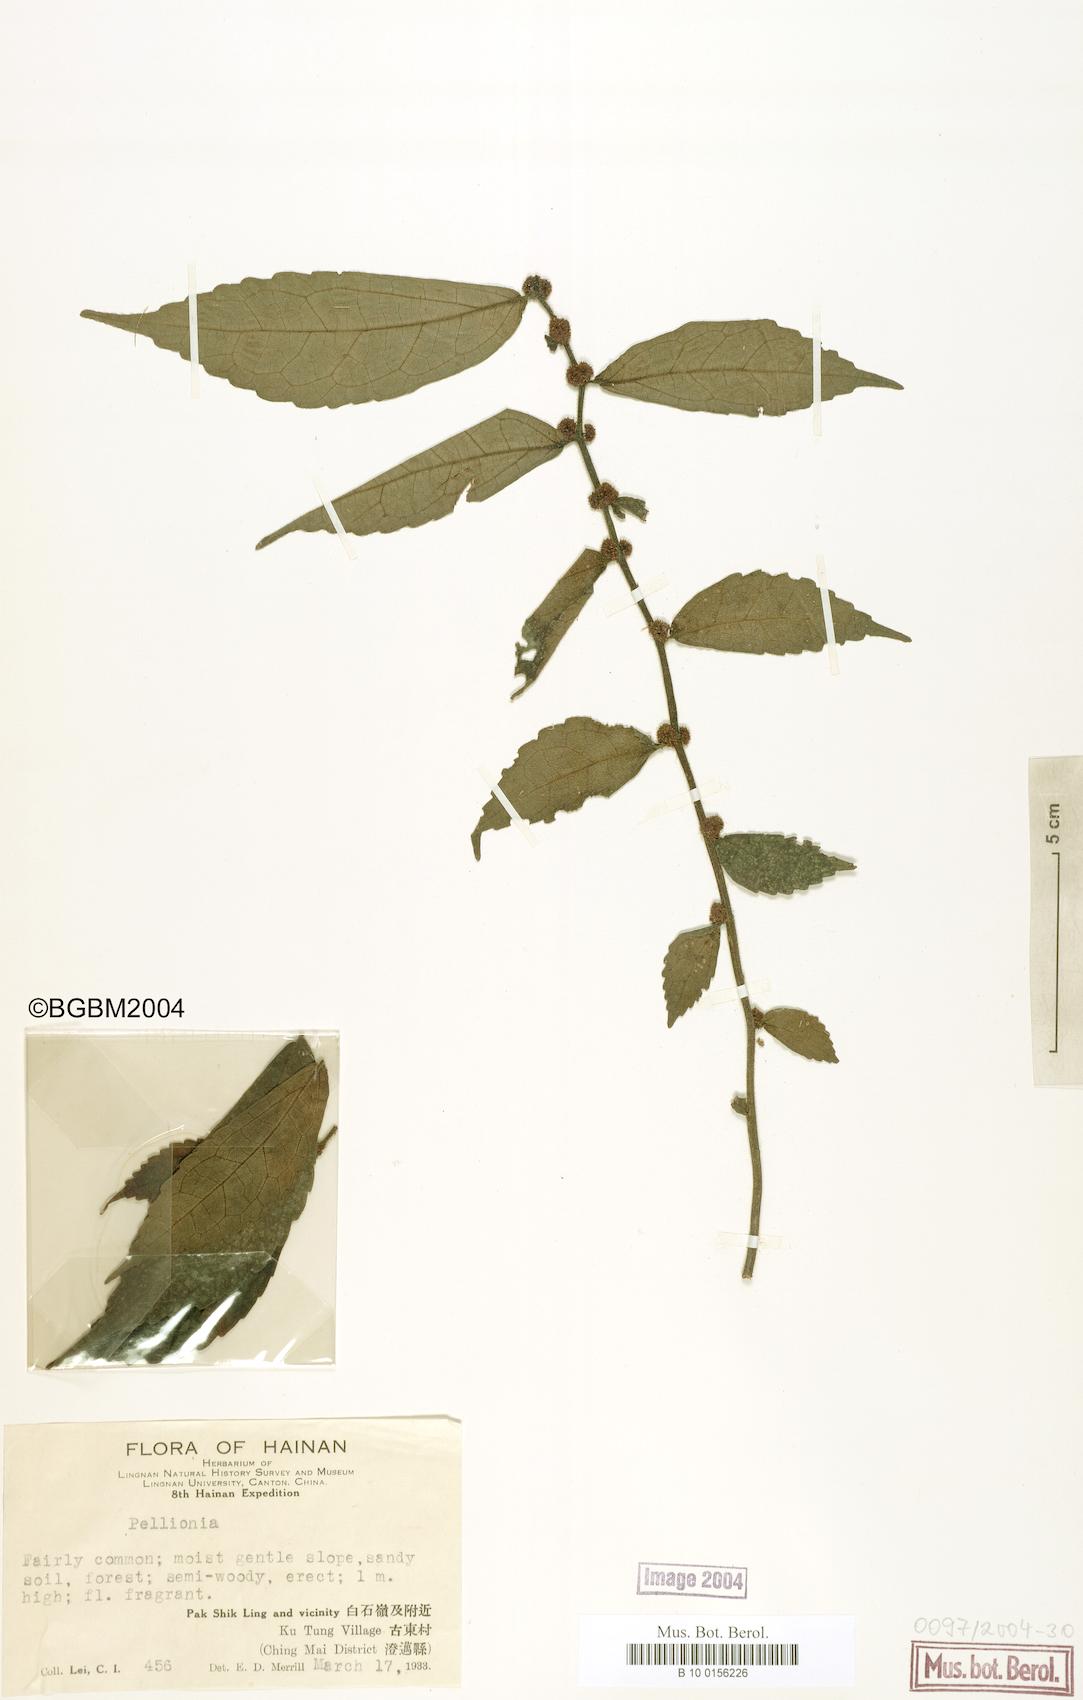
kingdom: Plantae
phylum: Tracheophyta
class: Magnoliopsida
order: Rosales
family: Urticaceae
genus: Pellionia
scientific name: Pellionia
